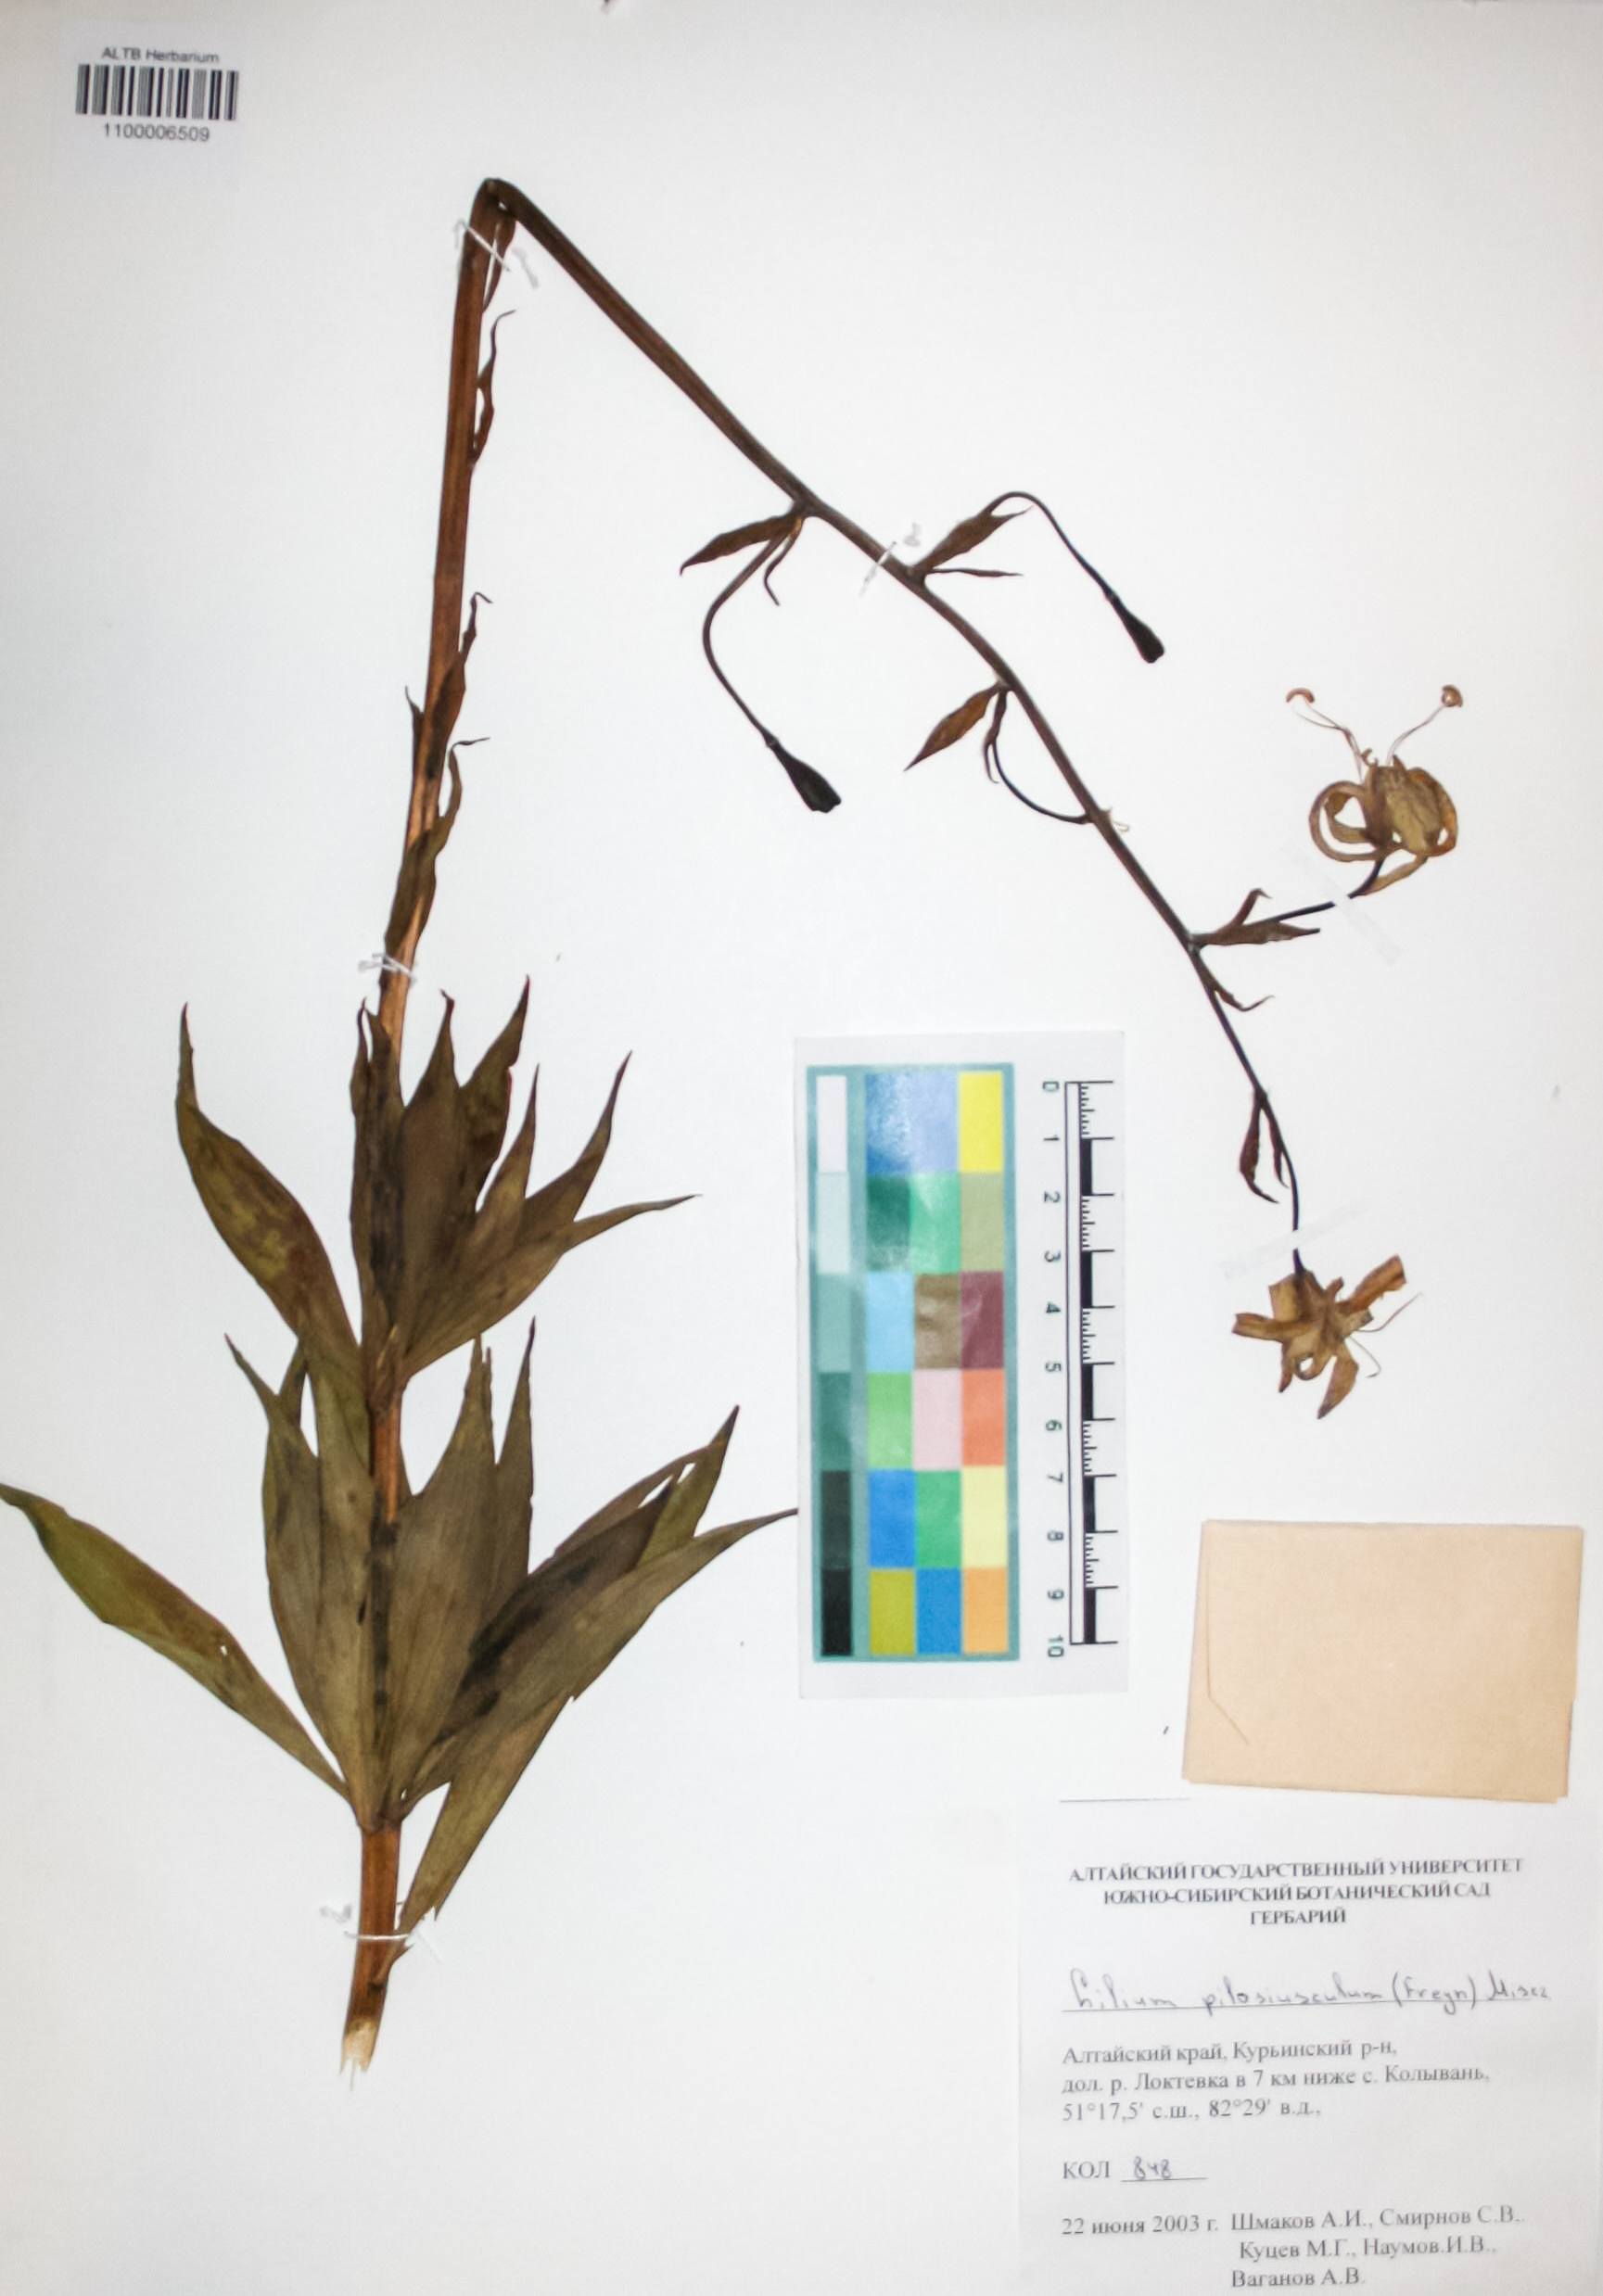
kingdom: Plantae
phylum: Tracheophyta
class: Liliopsida
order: Liliales
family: Liliaceae
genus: Lilium
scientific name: Lilium martagon
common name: Martagon lily
